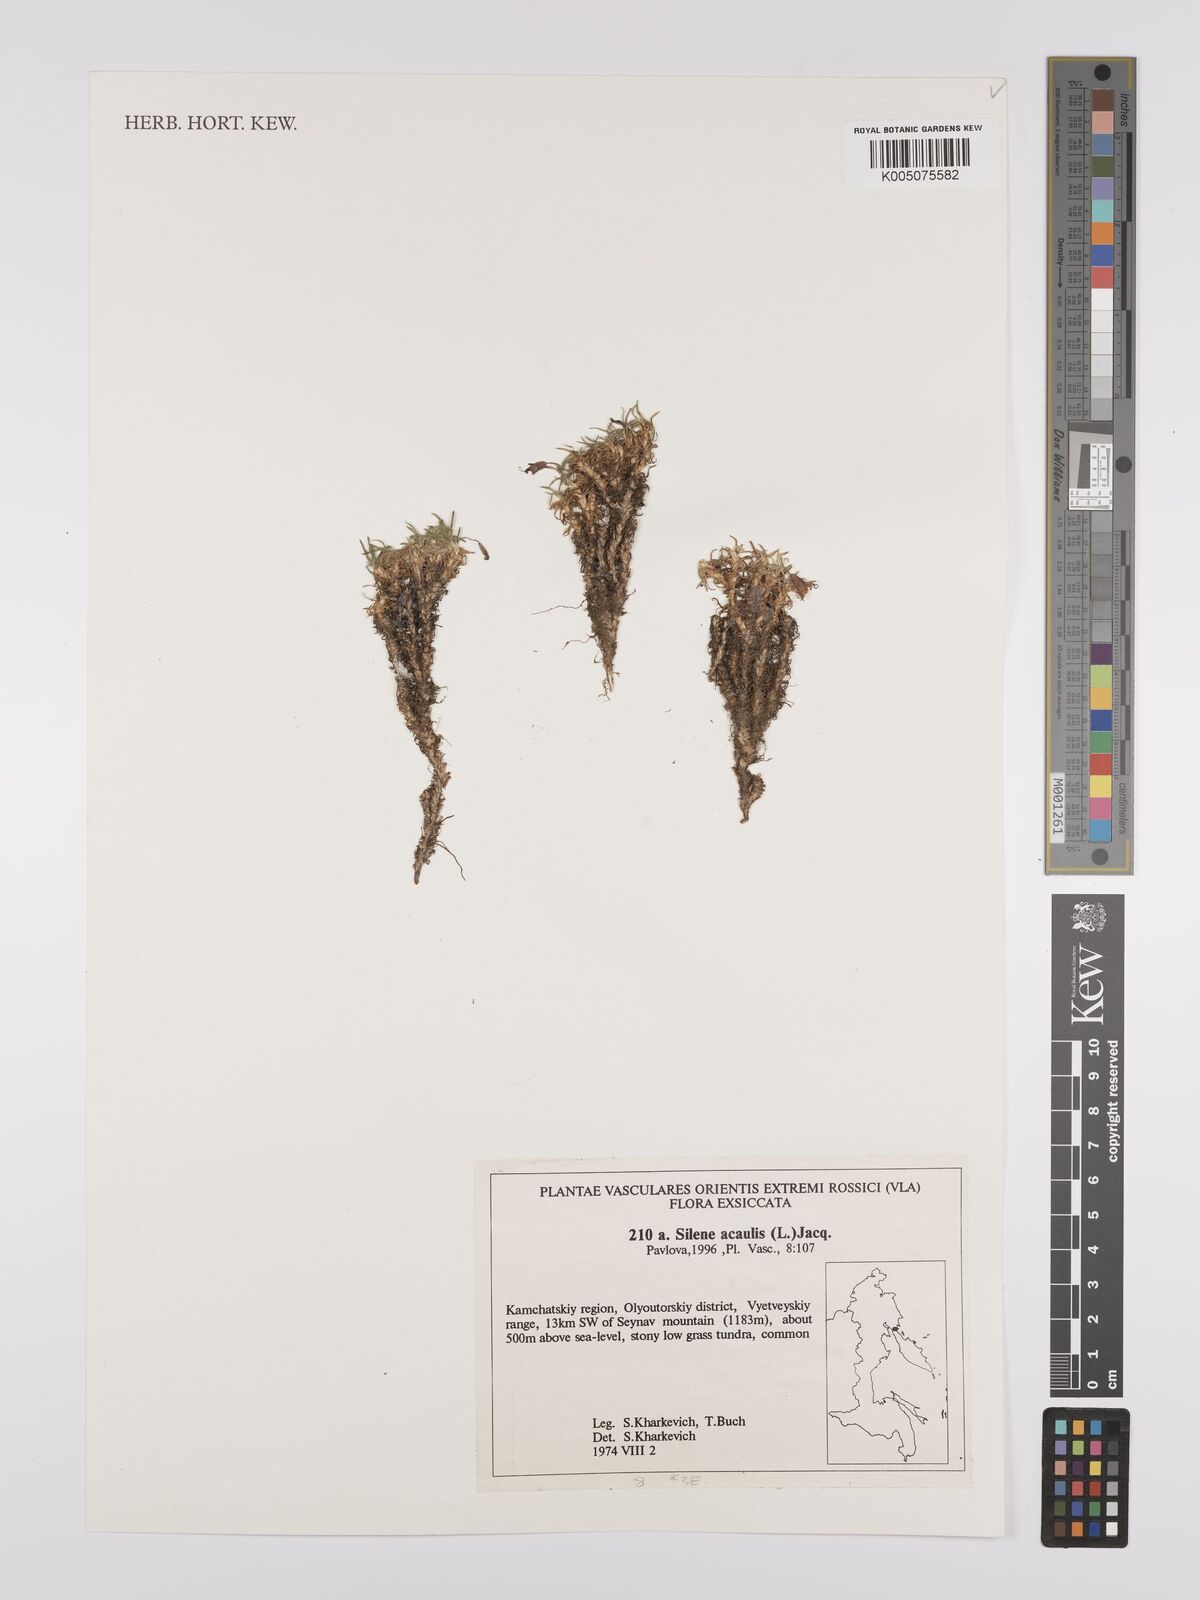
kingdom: Plantae
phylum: Tracheophyta
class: Magnoliopsida
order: Caryophyllales
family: Caryophyllaceae
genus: Silene
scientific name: Silene
